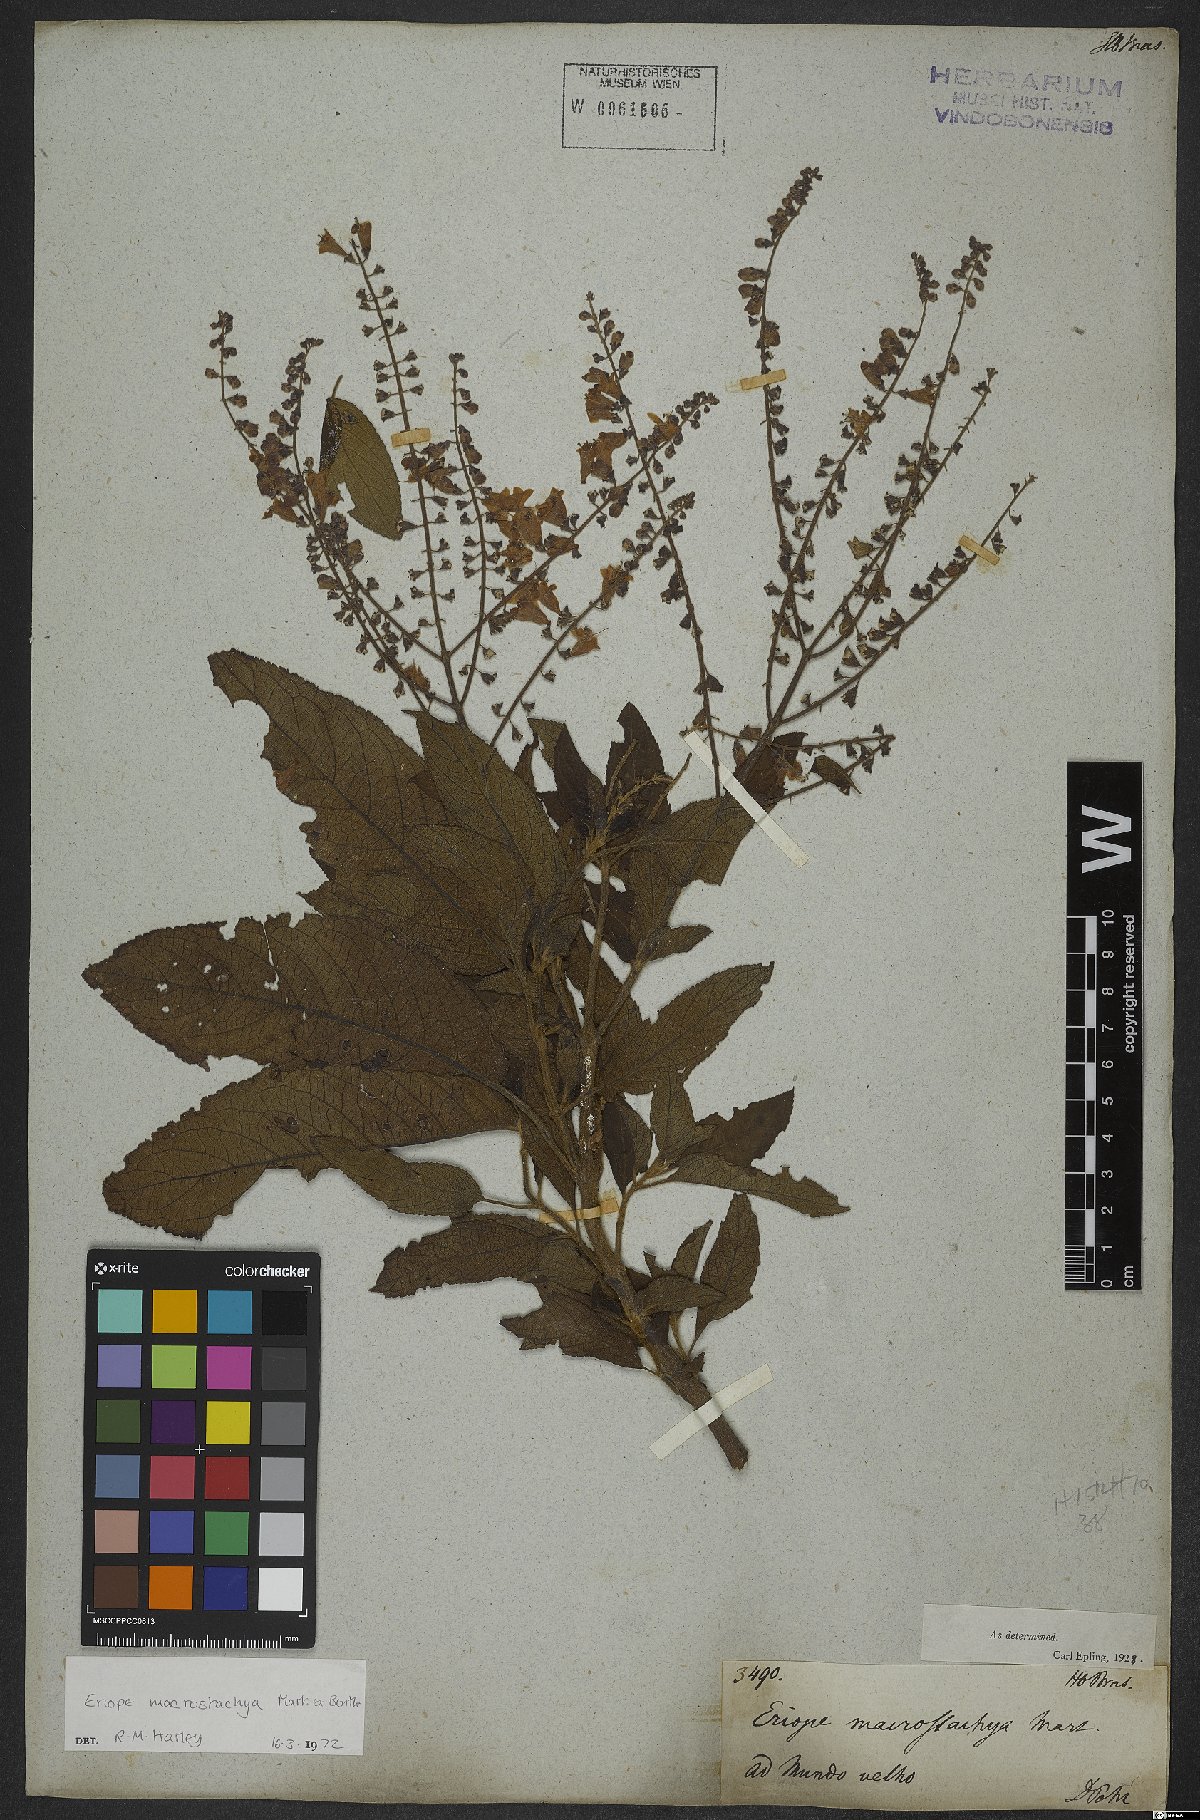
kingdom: Plantae
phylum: Tracheophyta
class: Magnoliopsida
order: Lamiales
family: Lamiaceae
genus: Eriope
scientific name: Eriope macrostachya
